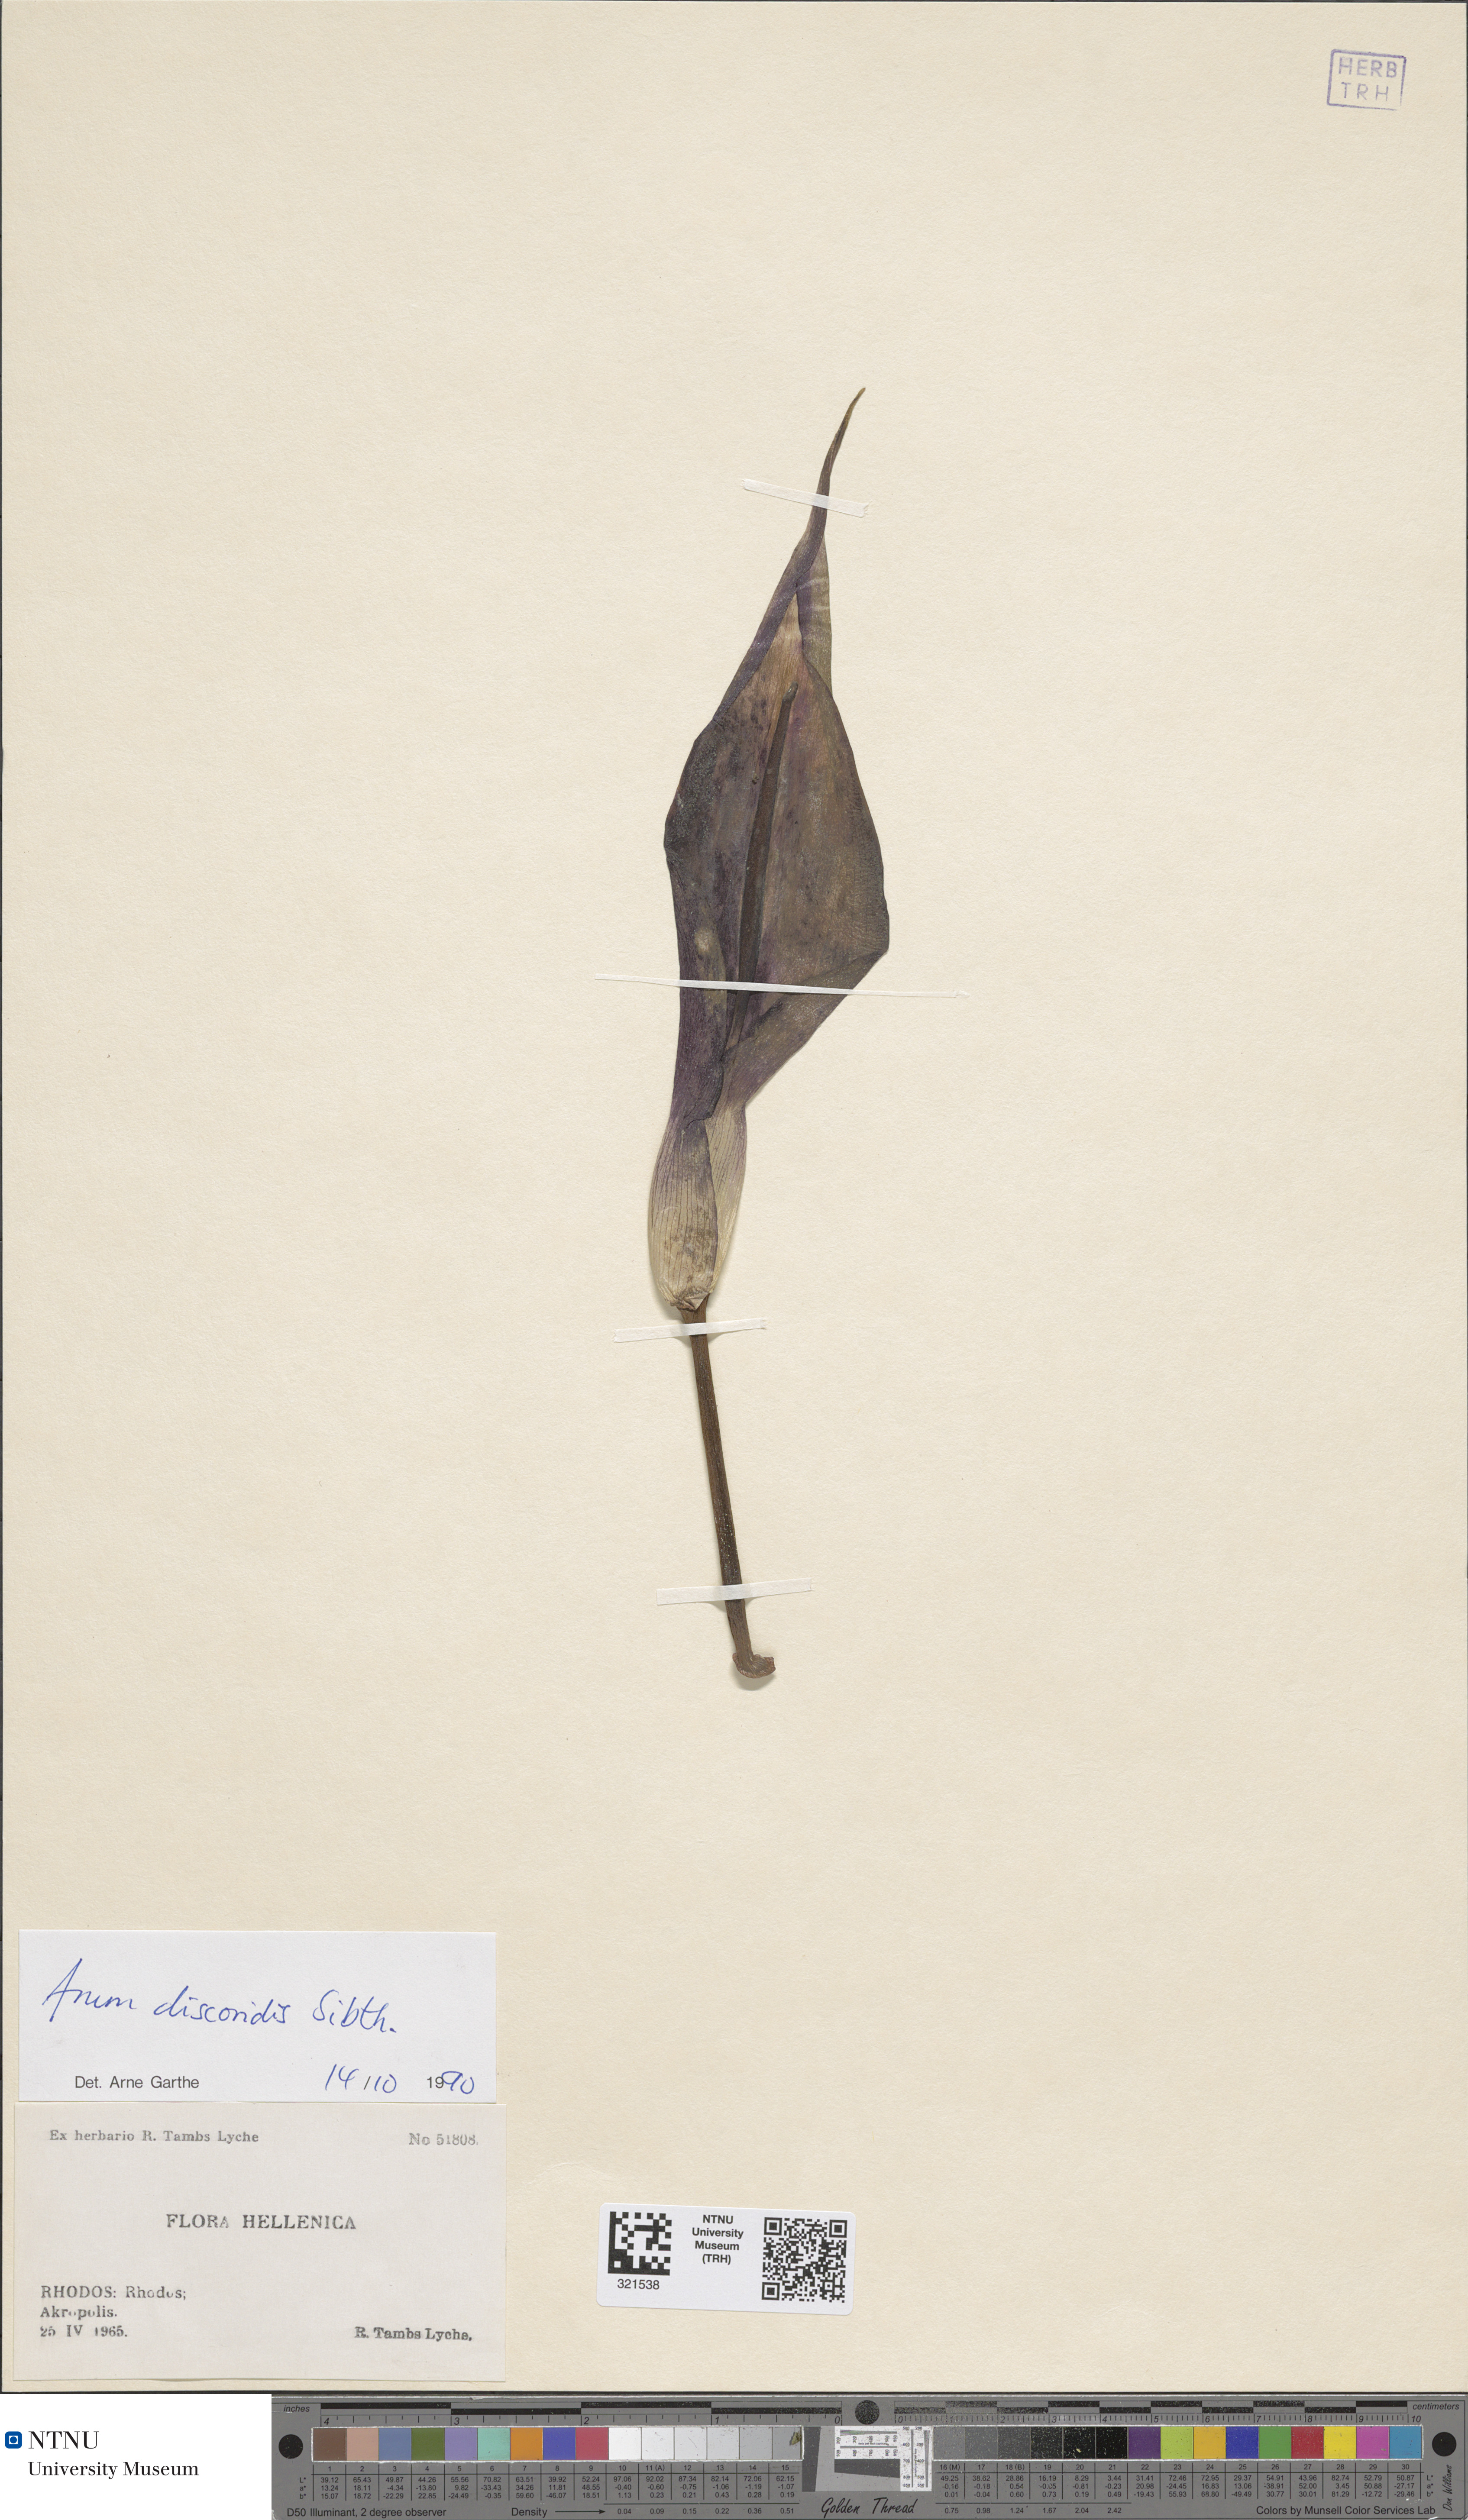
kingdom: Plantae
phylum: Tracheophyta
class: Liliopsida
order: Alismatales
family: Araceae
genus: Arum
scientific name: Arum dioscoridis
